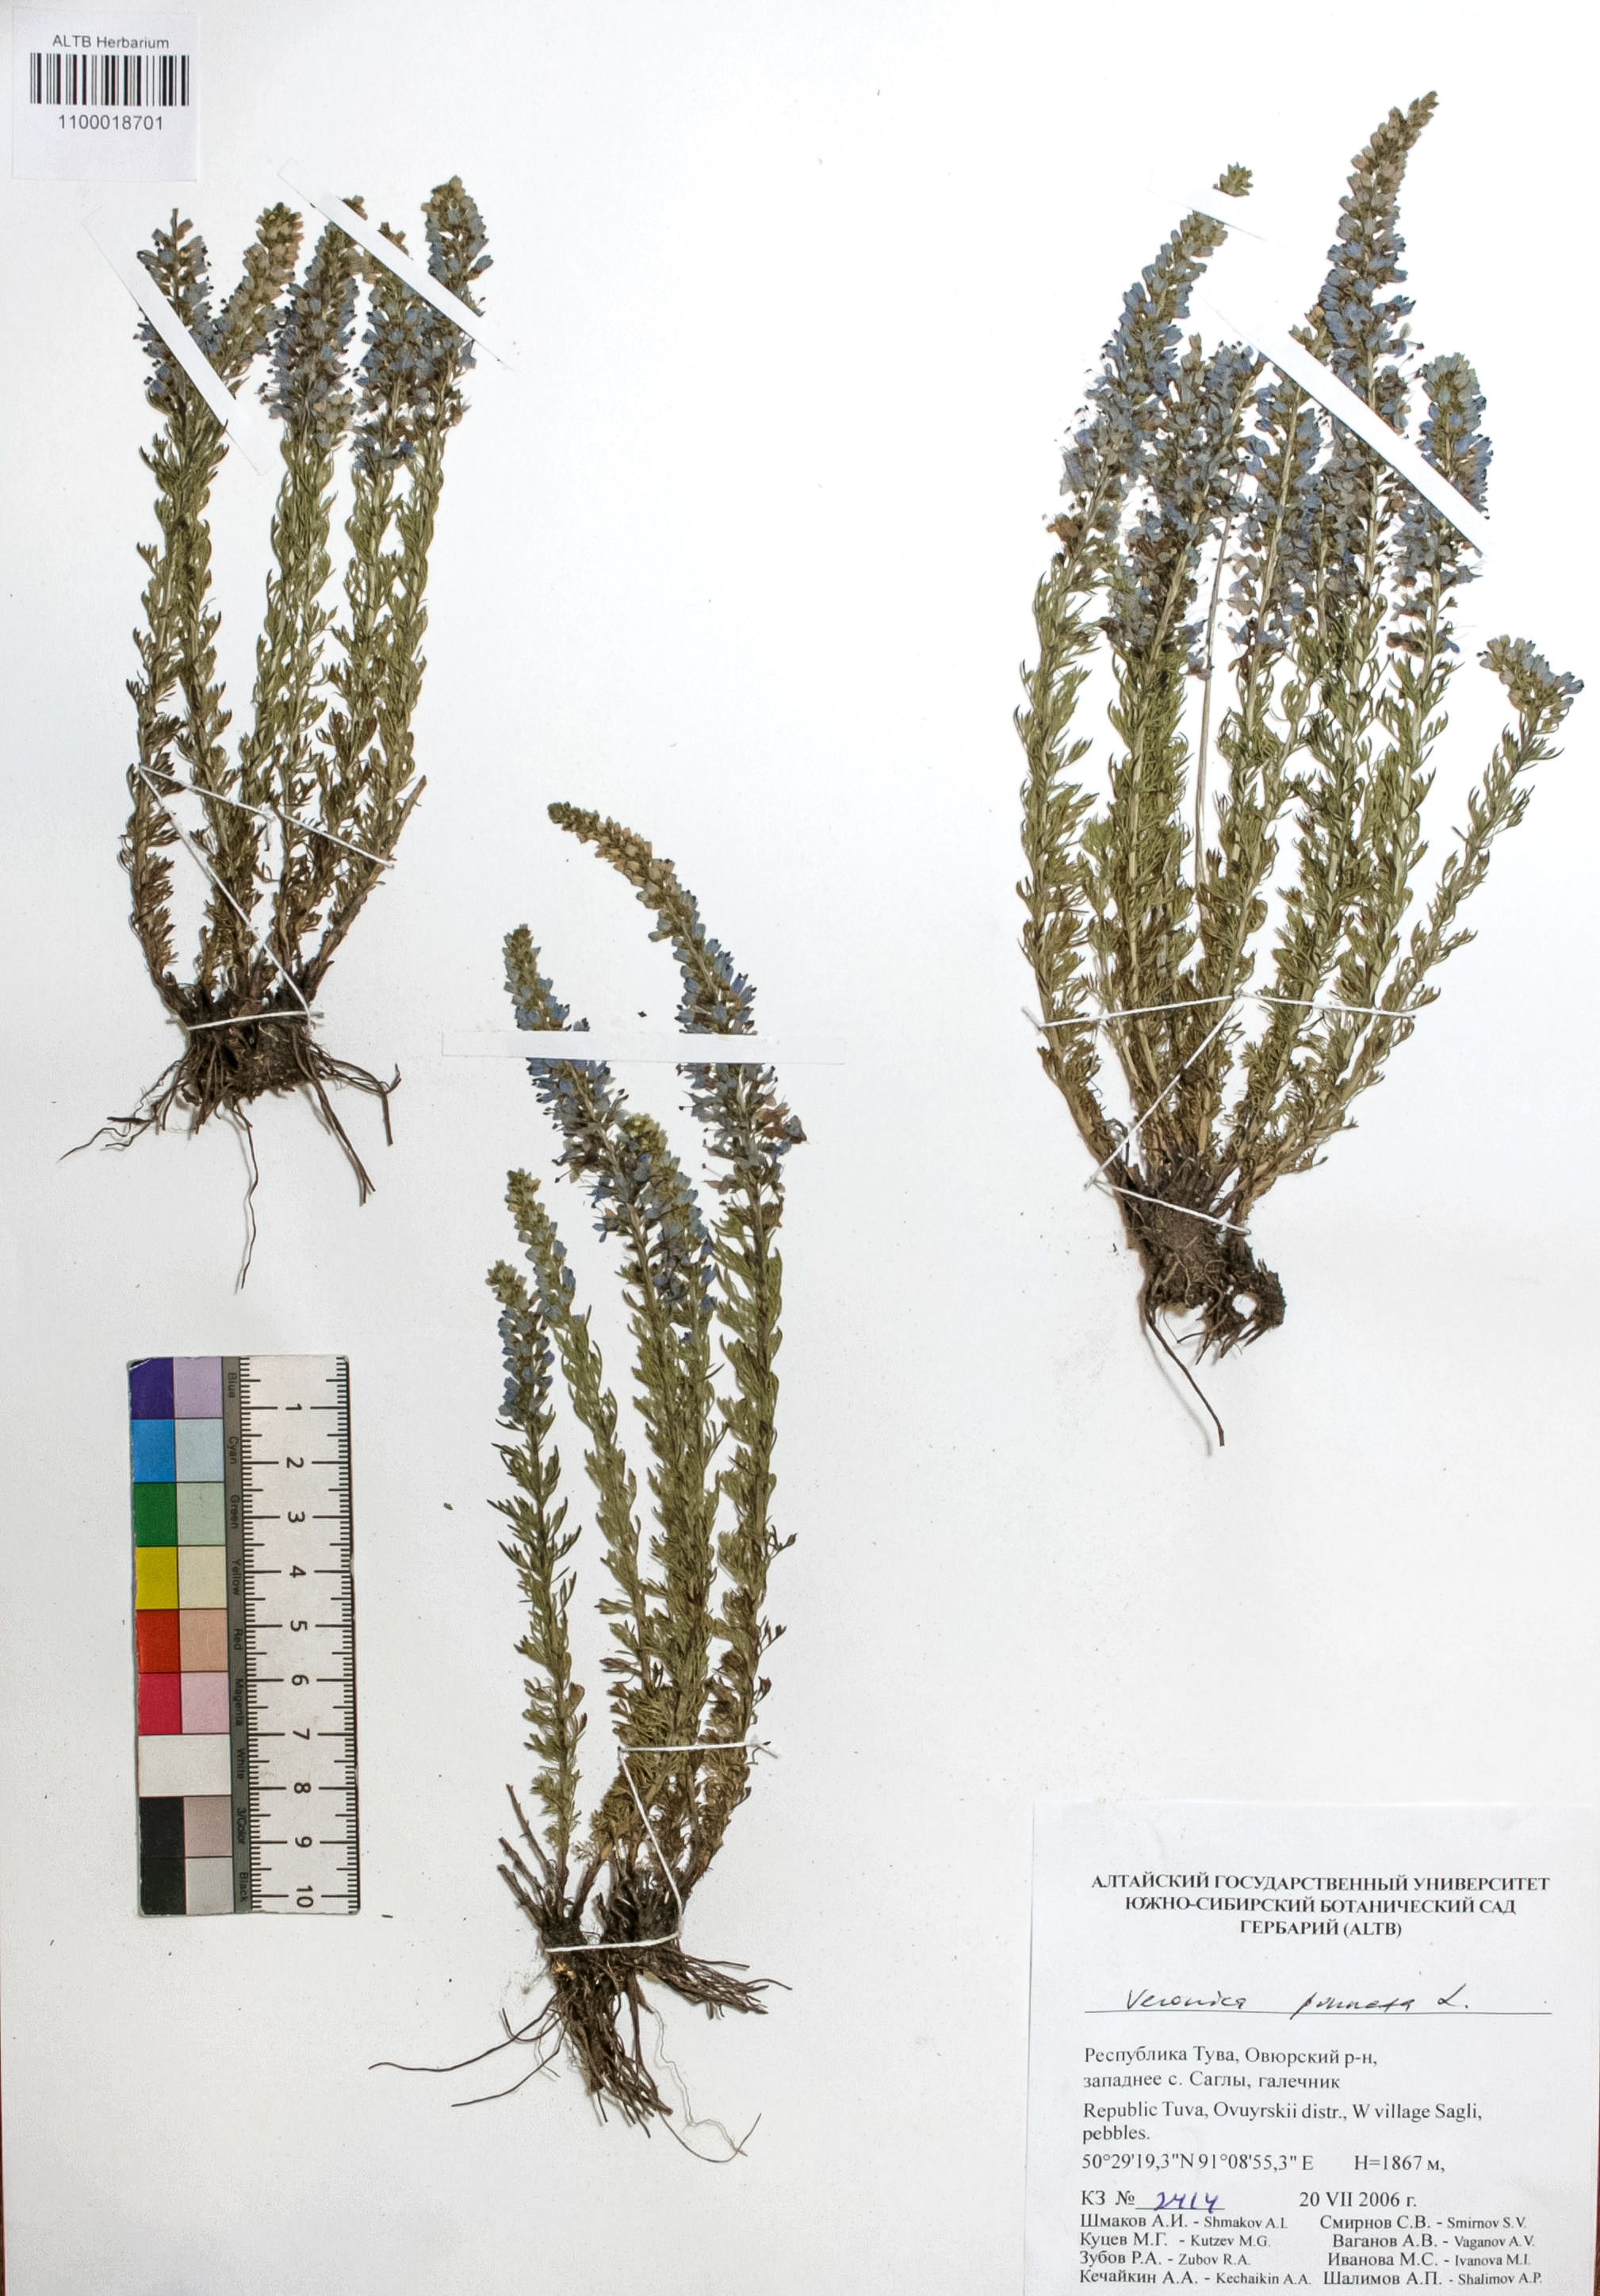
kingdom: Plantae
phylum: Tracheophyta
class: Magnoliopsida
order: Lamiales
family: Plantaginaceae
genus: Veronica
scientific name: Veronica pinnata
